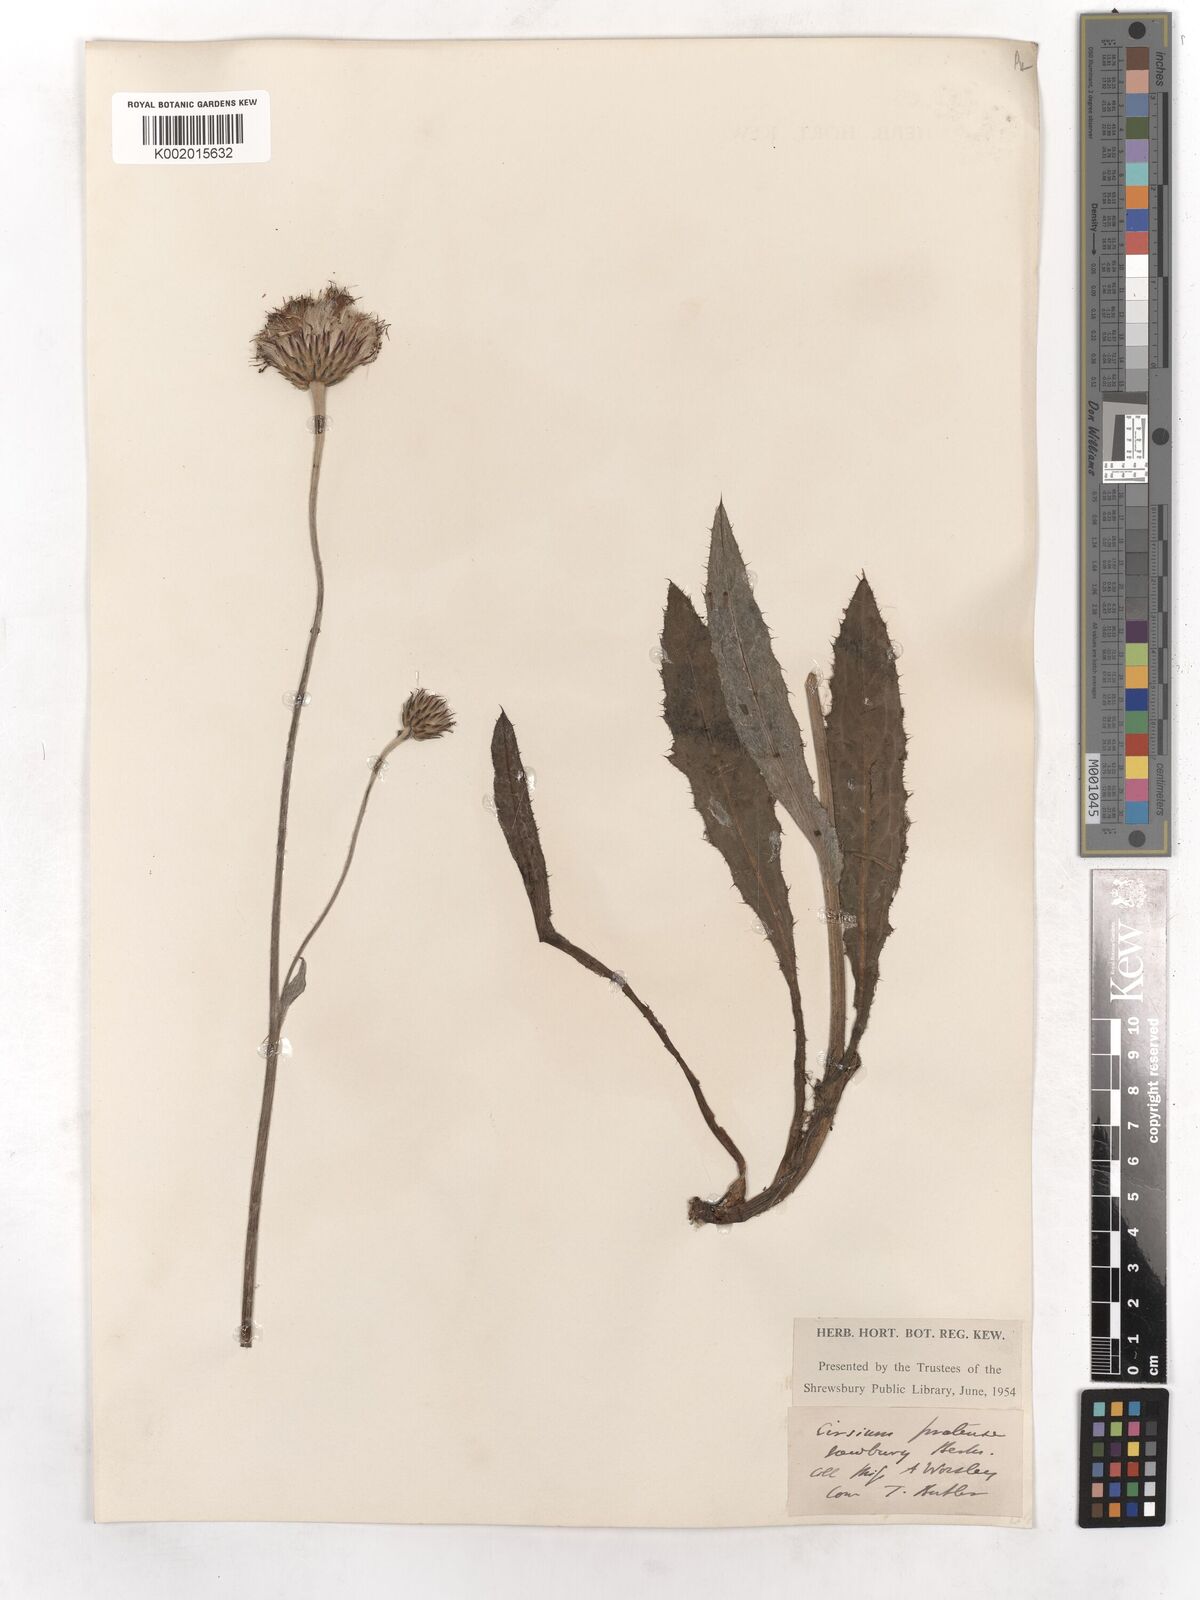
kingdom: Plantae
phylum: Tracheophyta
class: Magnoliopsida
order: Asterales
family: Asteraceae
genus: Cirsium
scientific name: Cirsium dissectum
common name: Meadow thistle
